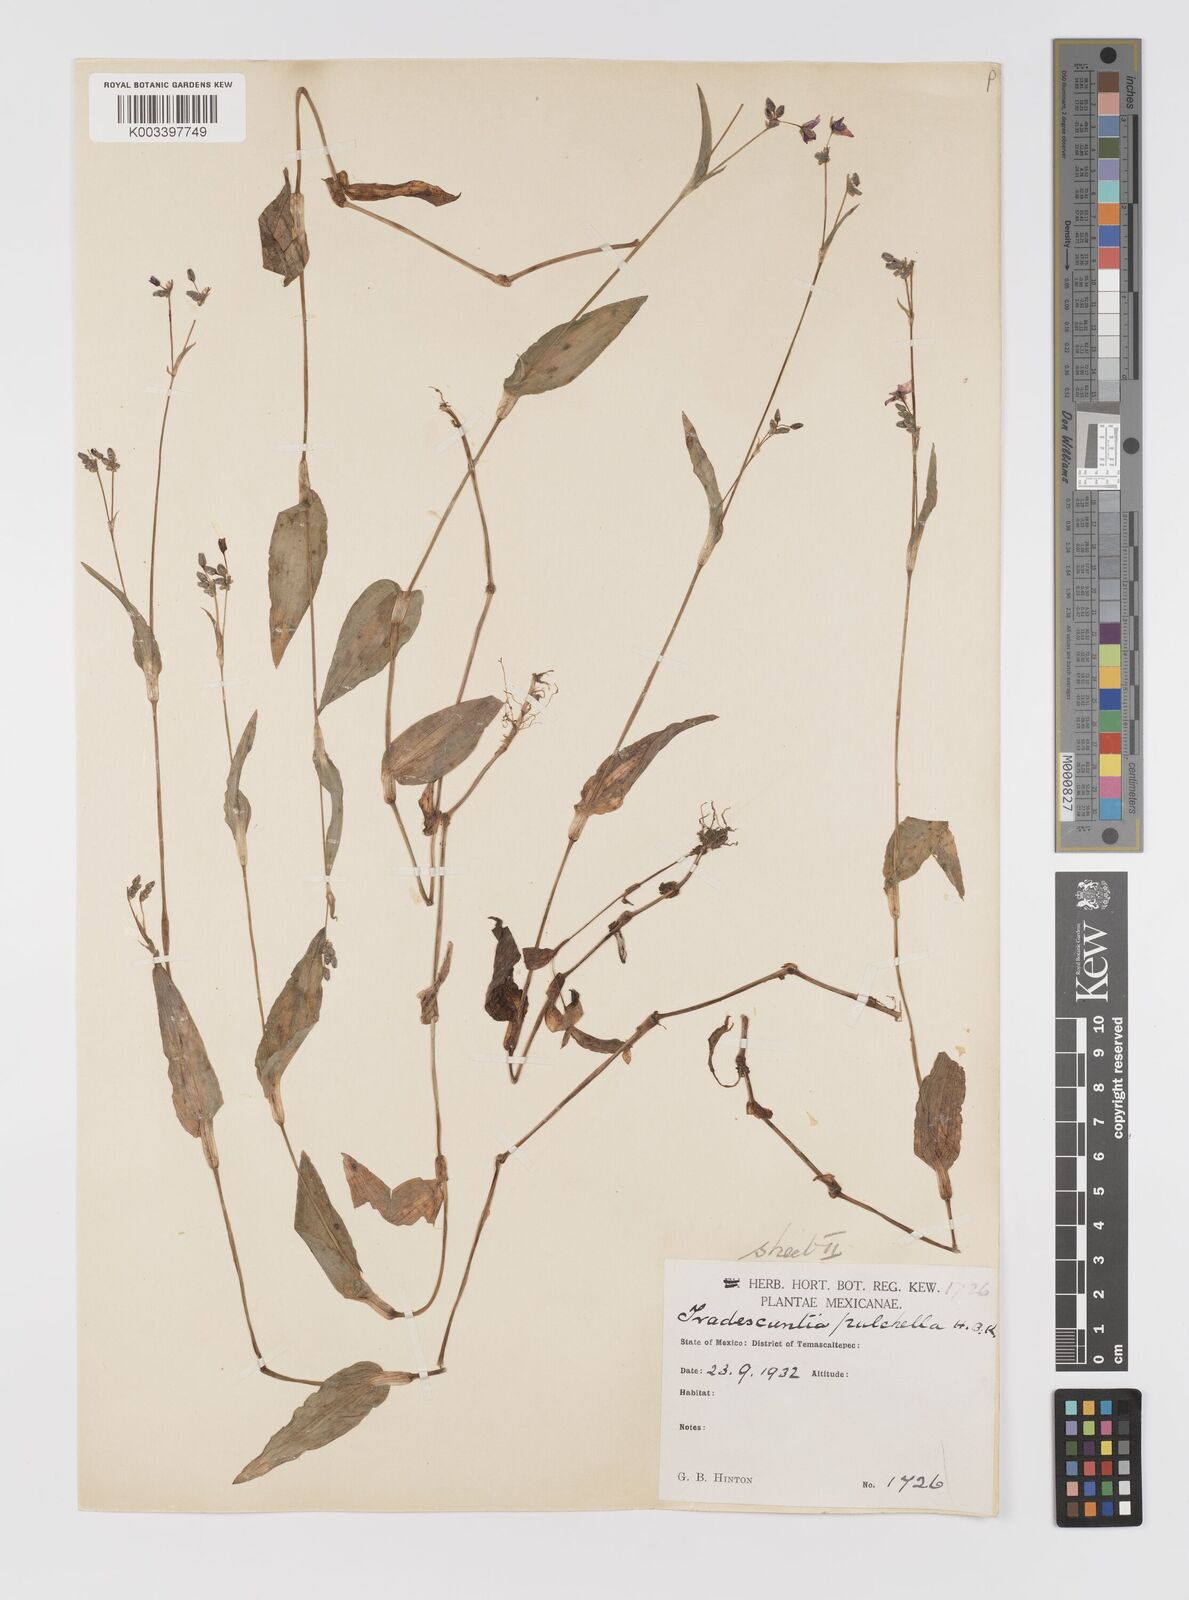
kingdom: Plantae
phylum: Tracheophyta
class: Liliopsida
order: Commelinales
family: Commelinaceae
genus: Gibasis
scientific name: Gibasis pulchella
